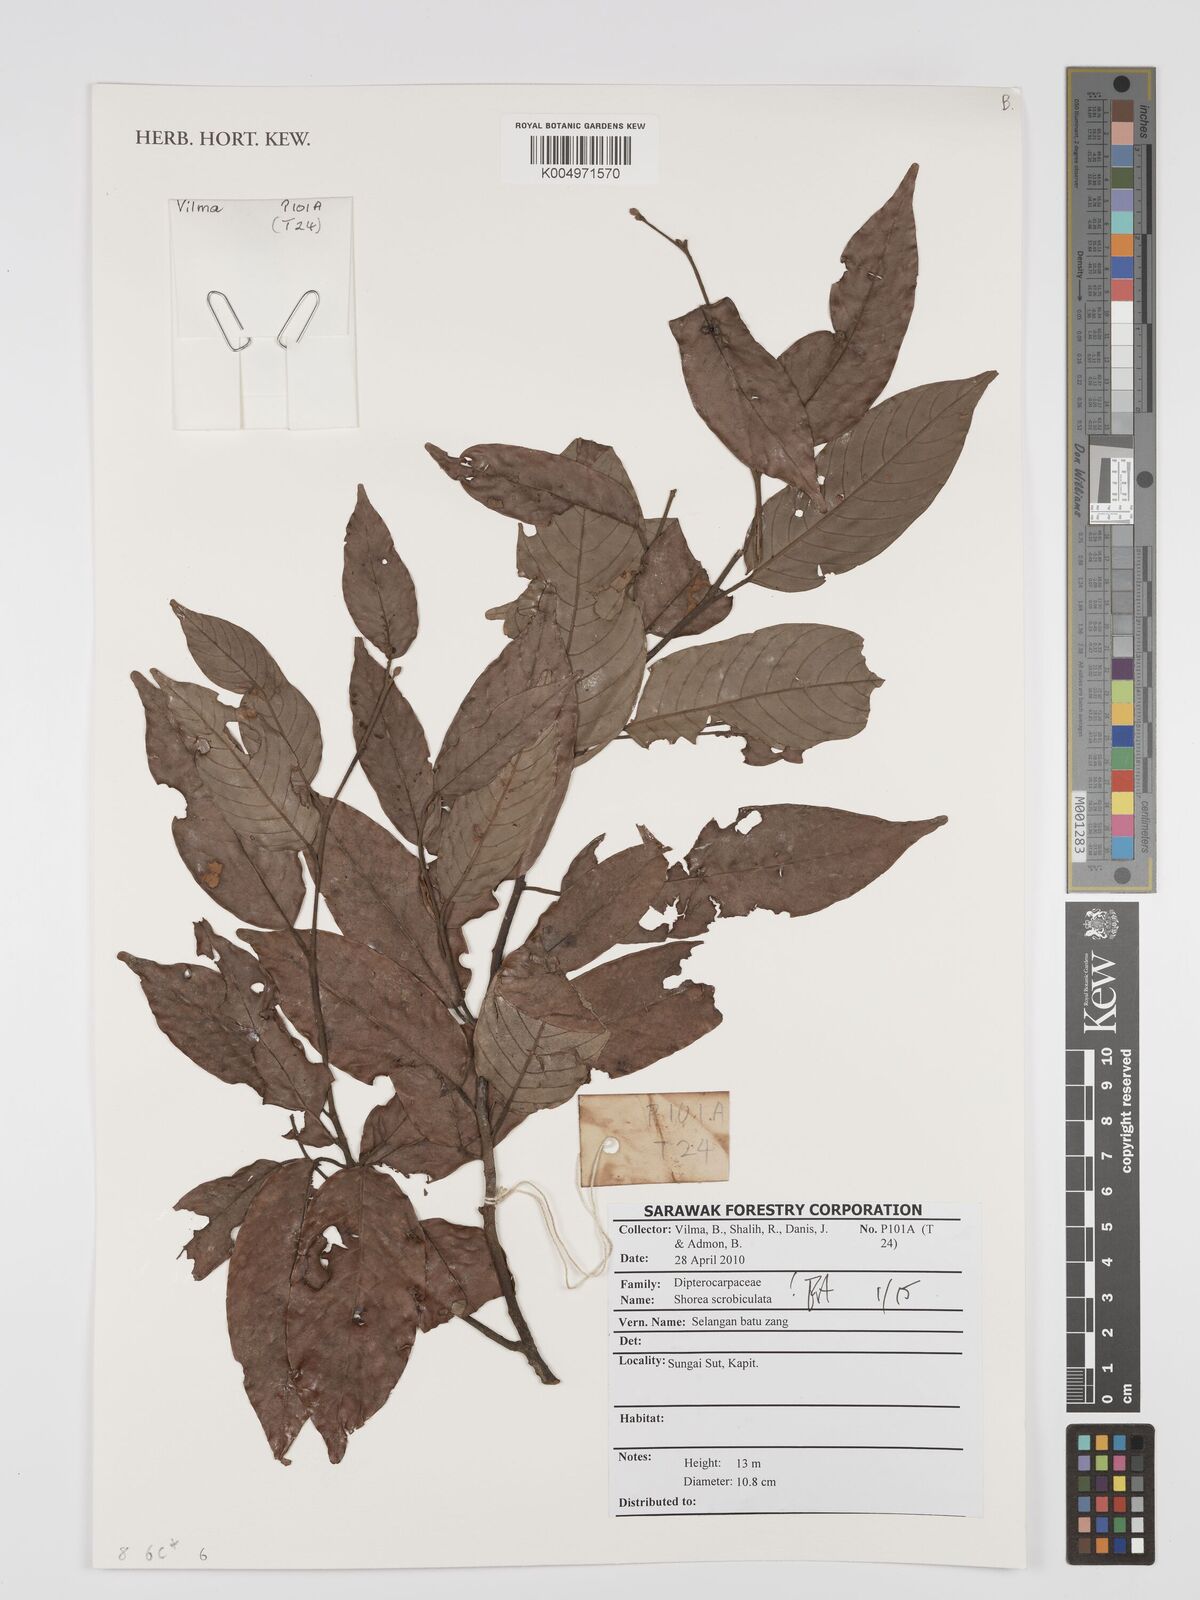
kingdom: Plantae
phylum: Tracheophyta
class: Magnoliopsida
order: Malvales
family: Dipterocarpaceae
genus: Shorea
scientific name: Shorea scrobiculata
